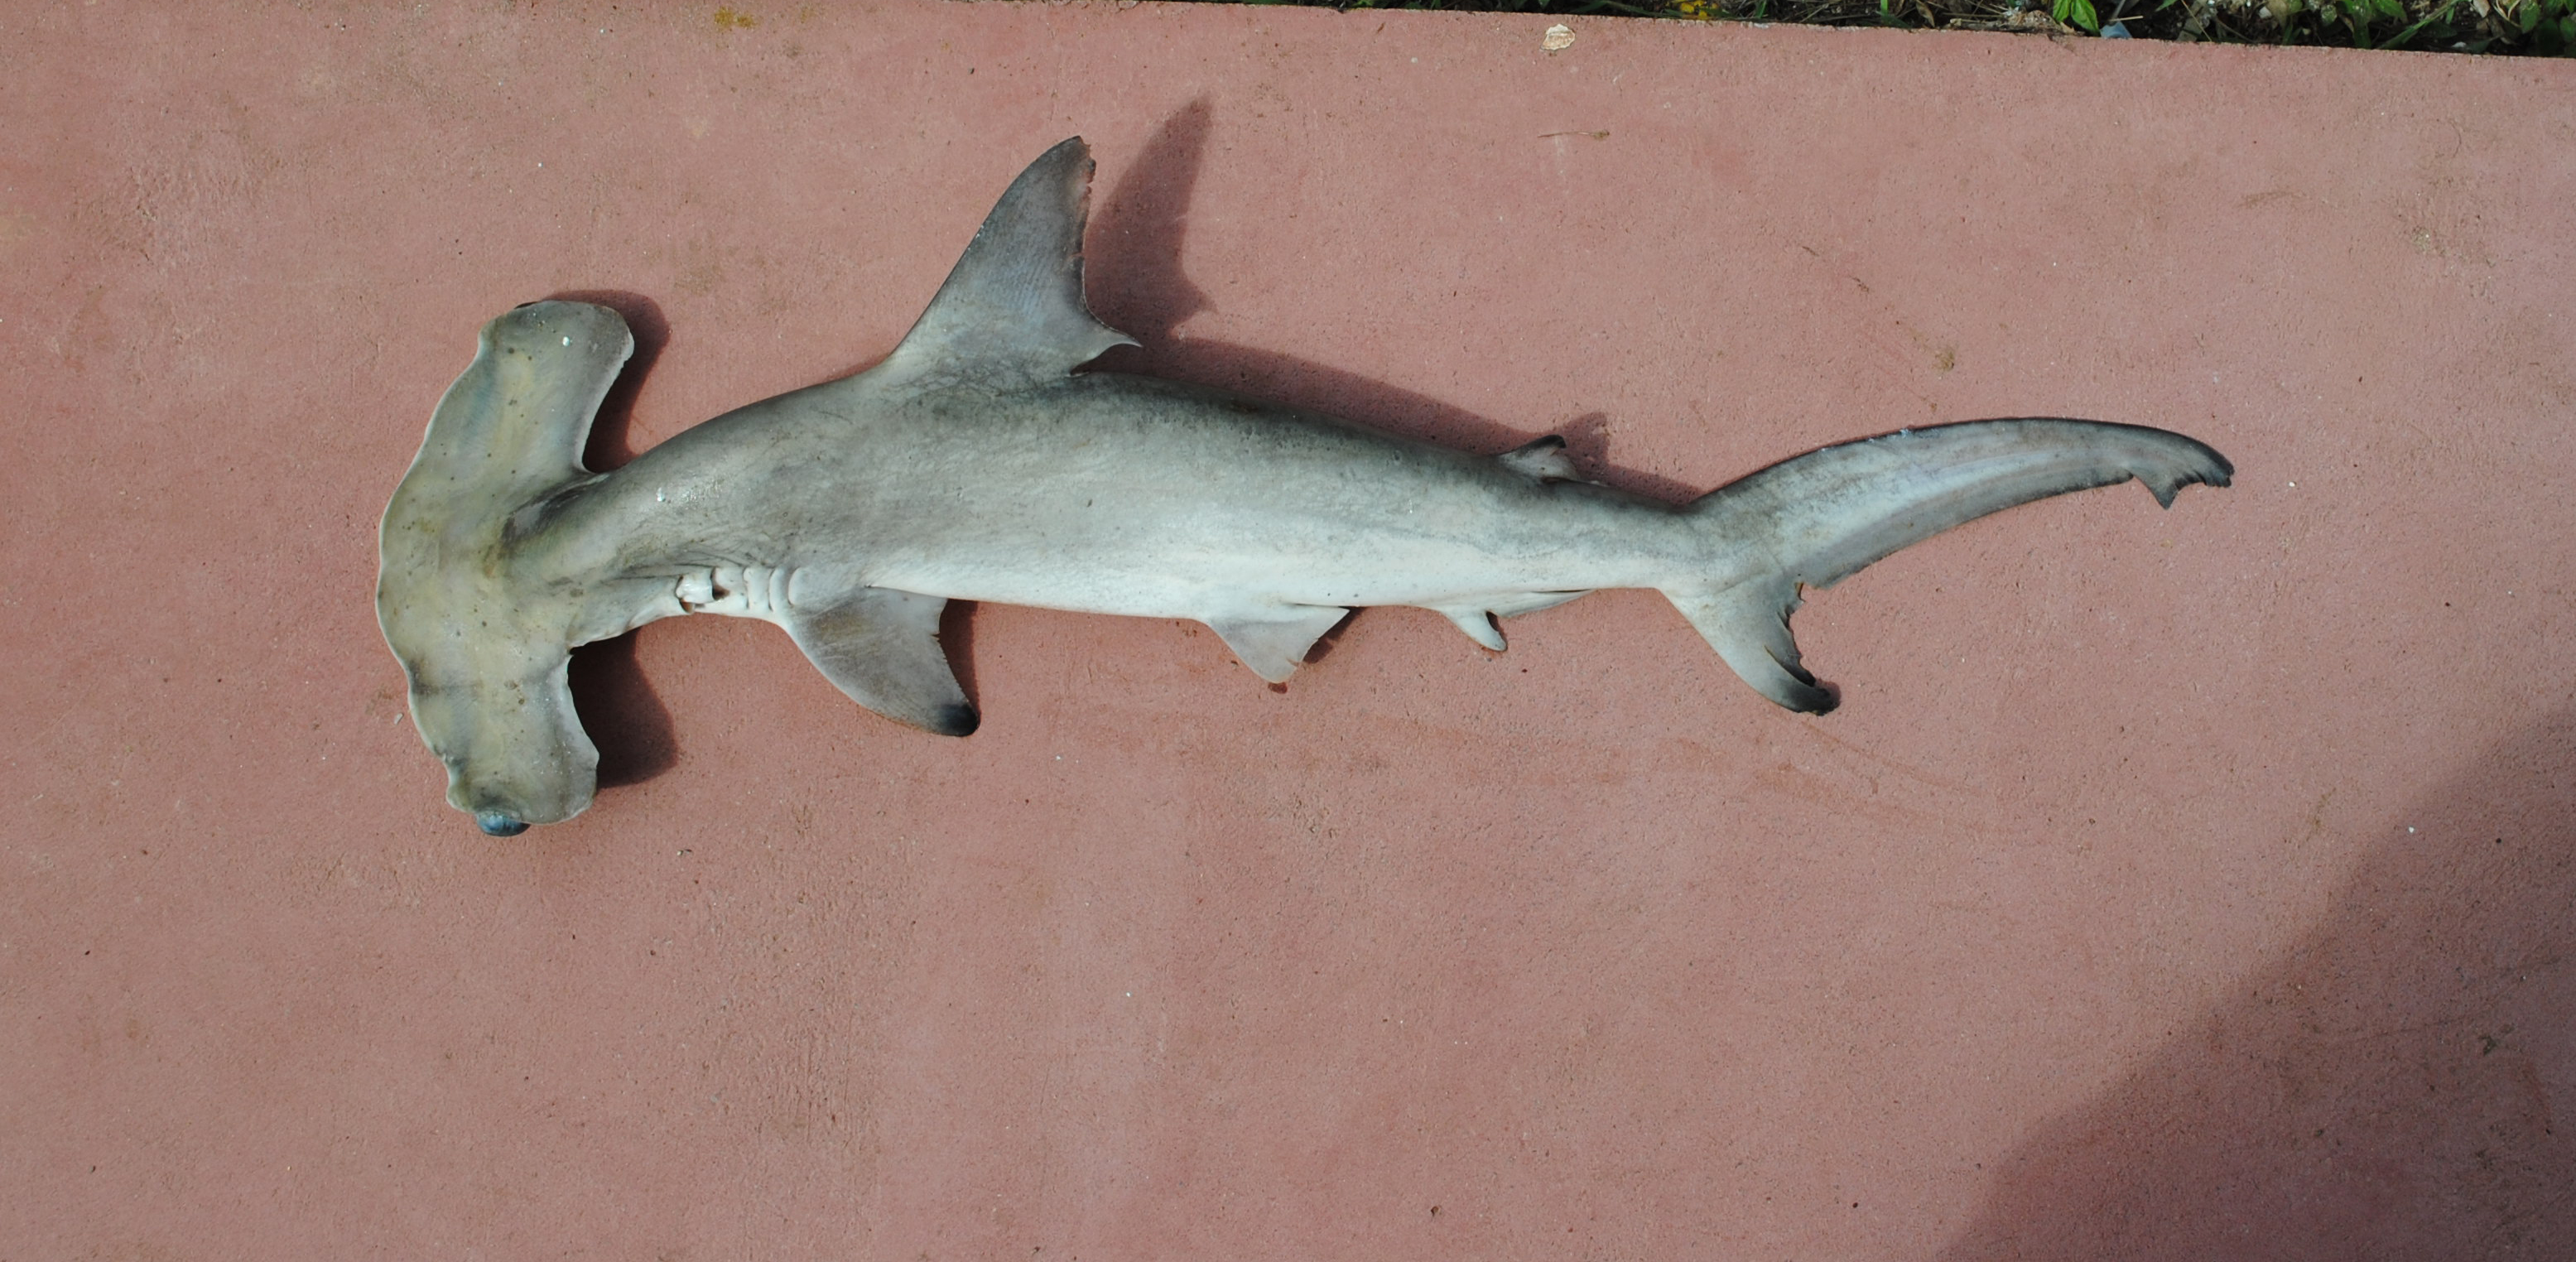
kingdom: Animalia
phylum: Chordata
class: Elasmobranchii
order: Carcharhiniformes
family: Sphyrnidae
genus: Sphyrna
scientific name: Sphyrna lewini
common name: Scalloped hammerhead
